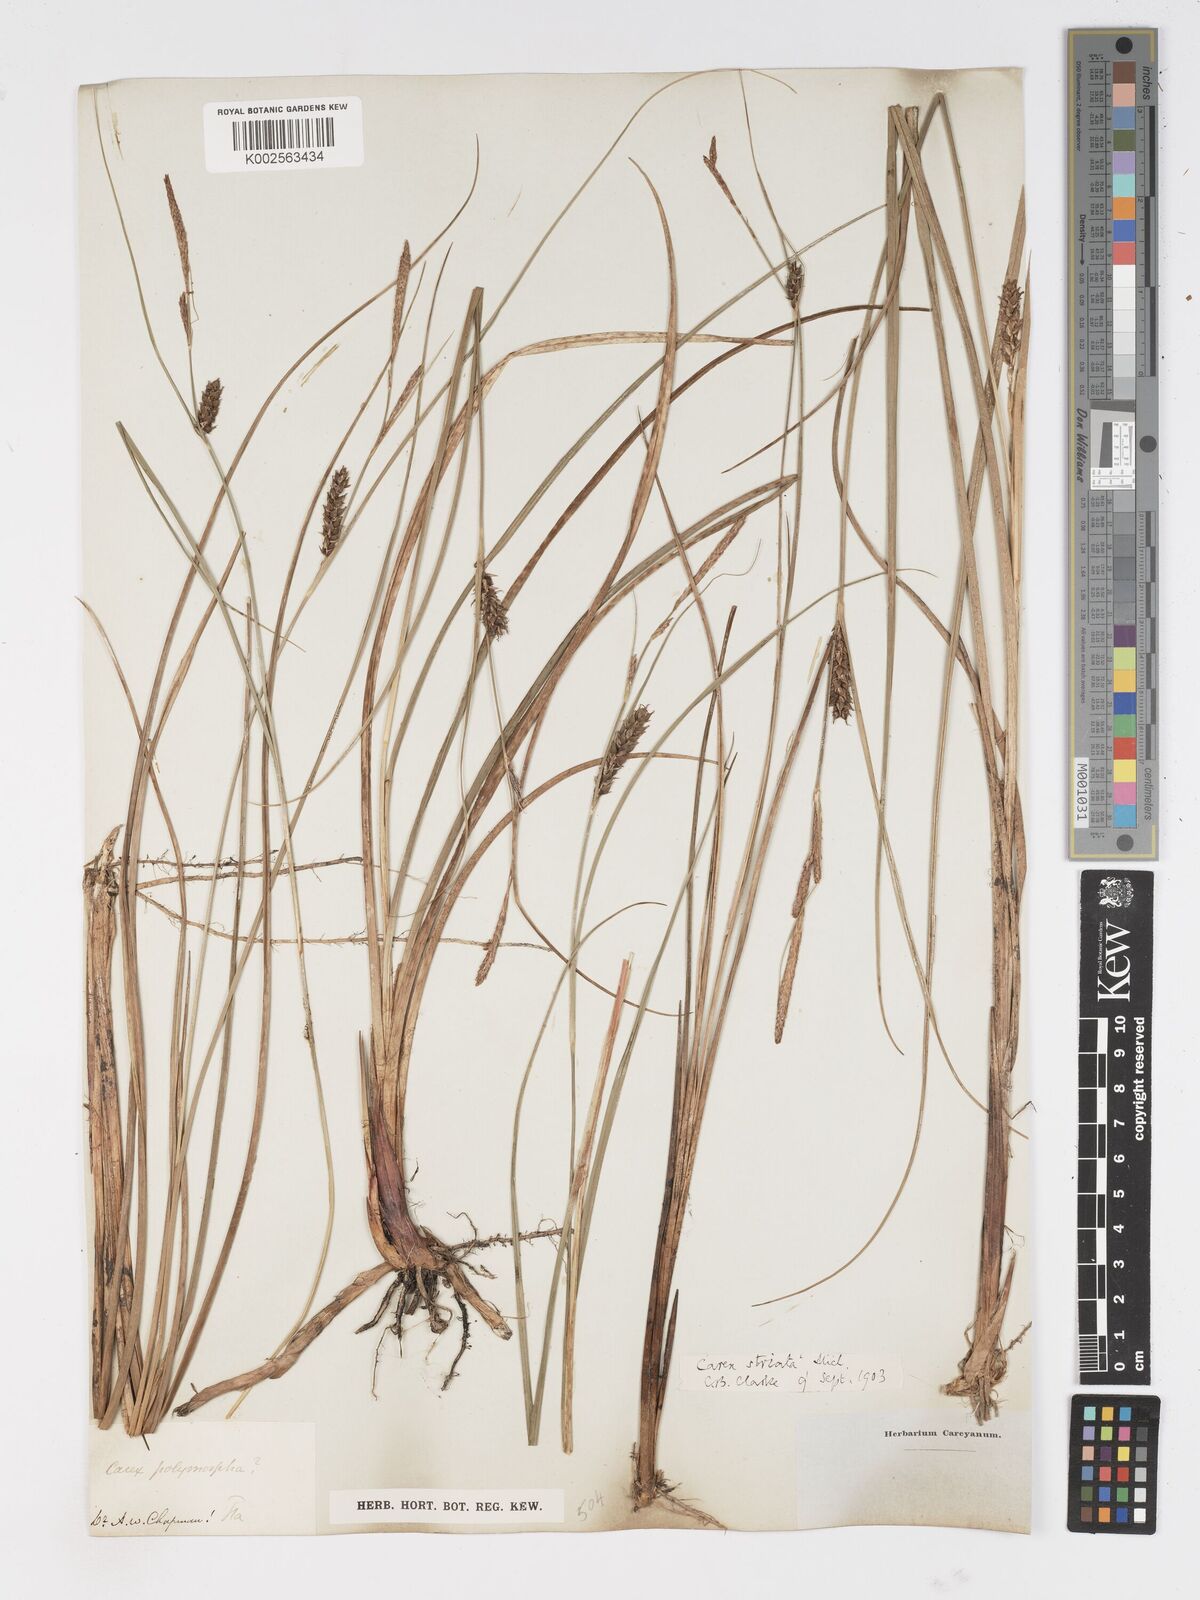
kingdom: Plantae
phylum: Tracheophyta
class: Liliopsida
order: Poales
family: Cyperaceae
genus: Carex
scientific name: Carex trichocarpa
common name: Hairy-fruited lake sedge
